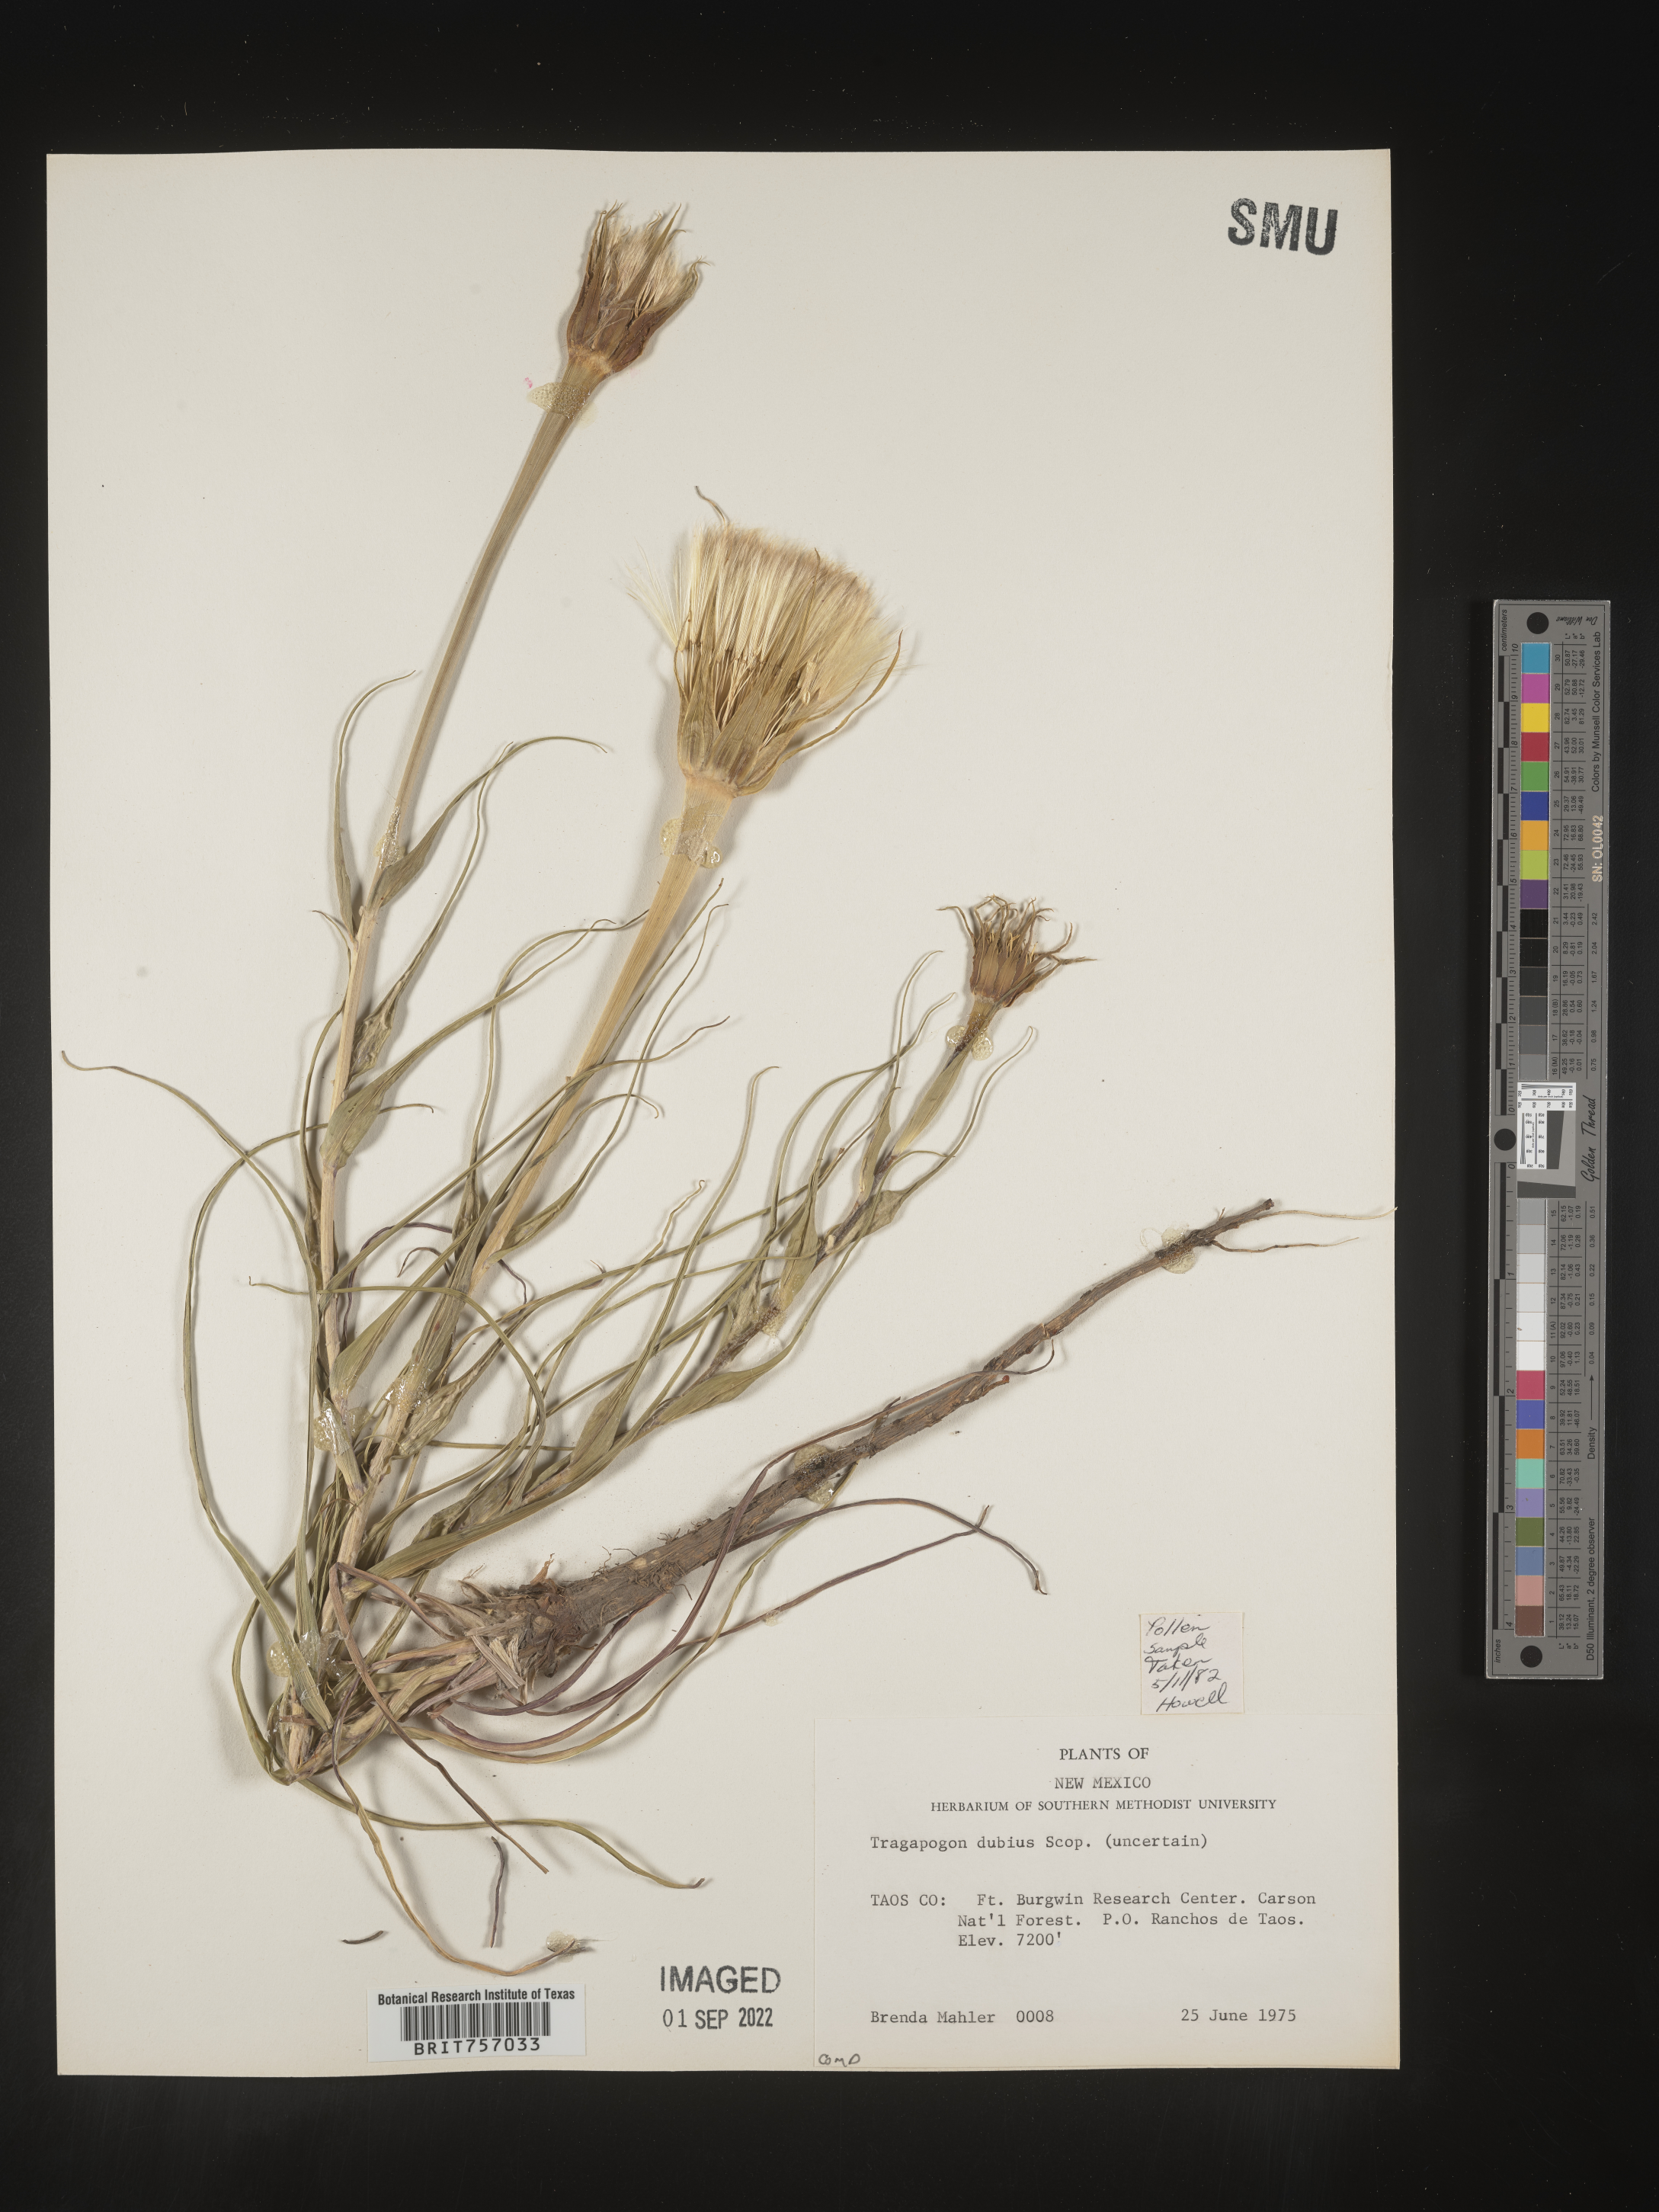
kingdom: Plantae
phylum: Tracheophyta
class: Magnoliopsida
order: Asterales
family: Asteraceae
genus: Tragopogon
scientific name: Tragopogon dubius
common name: Yellow salsify
